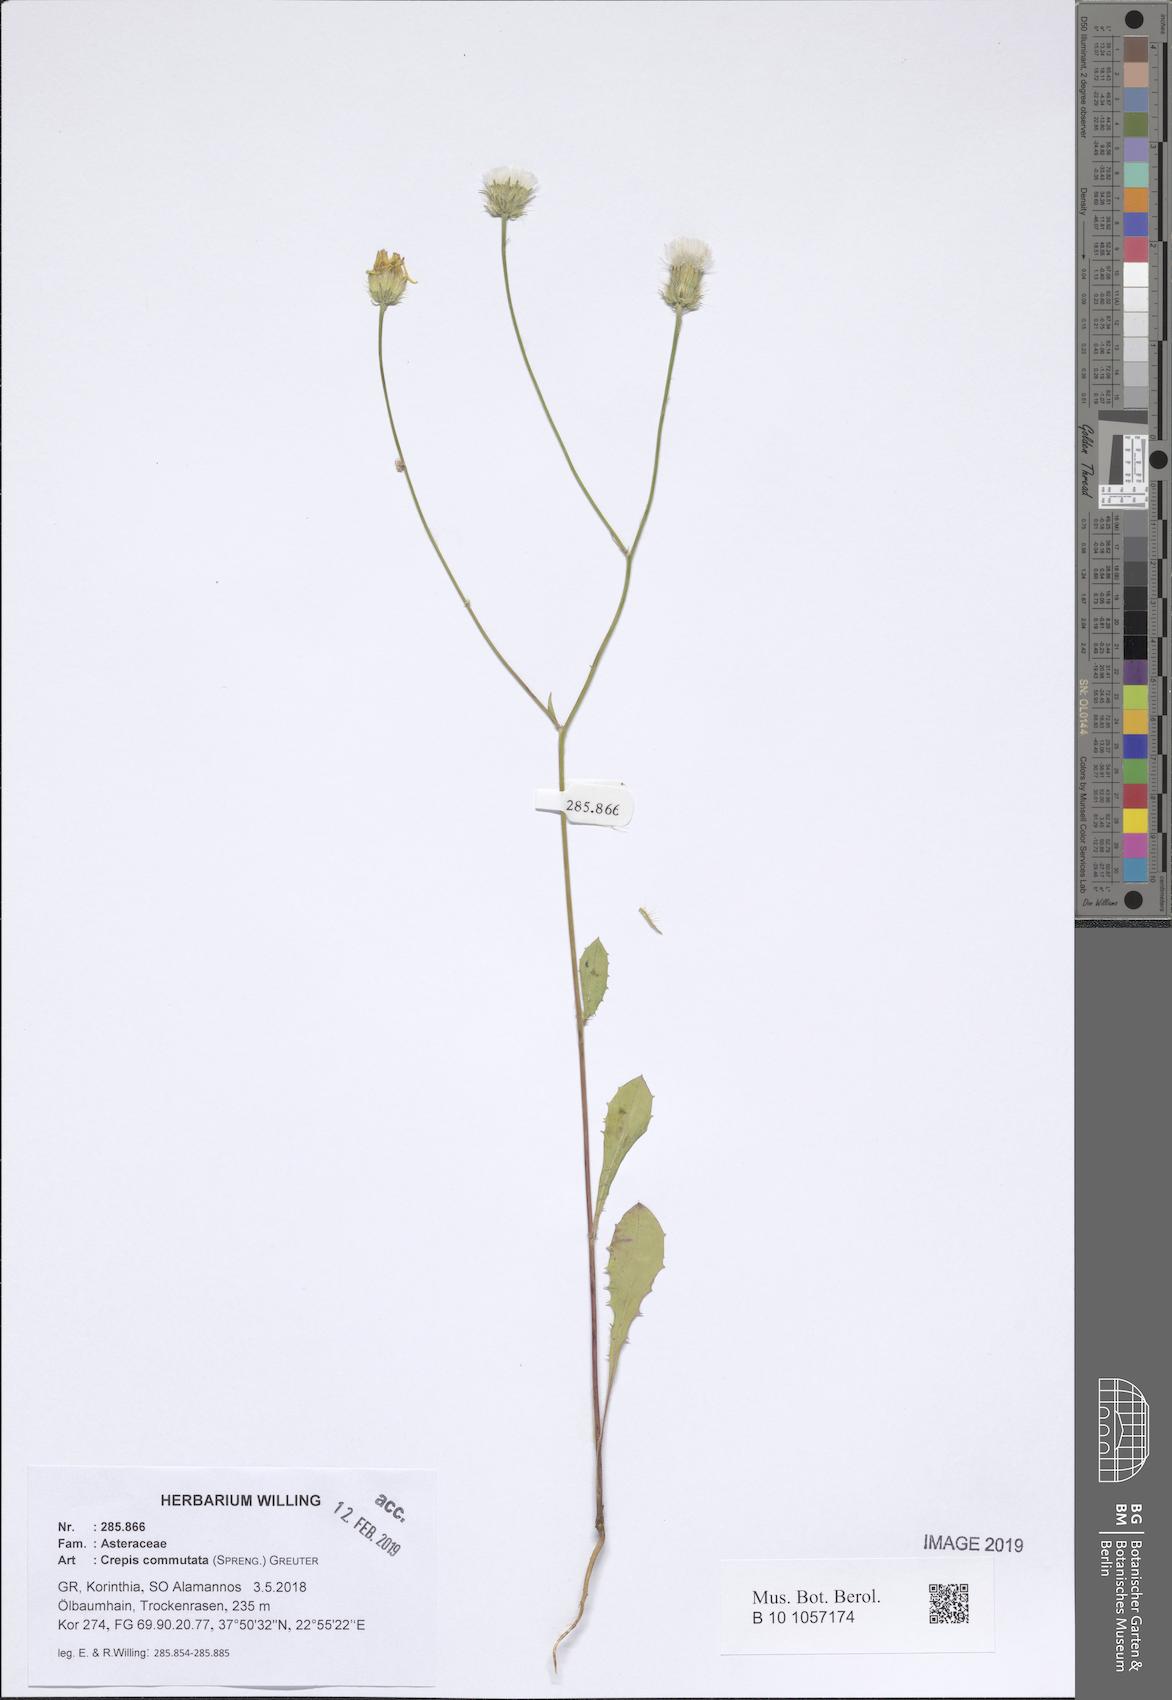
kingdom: Plantae
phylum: Tracheophyta
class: Magnoliopsida
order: Asterales
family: Asteraceae
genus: Crepis
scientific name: Crepis commutata
